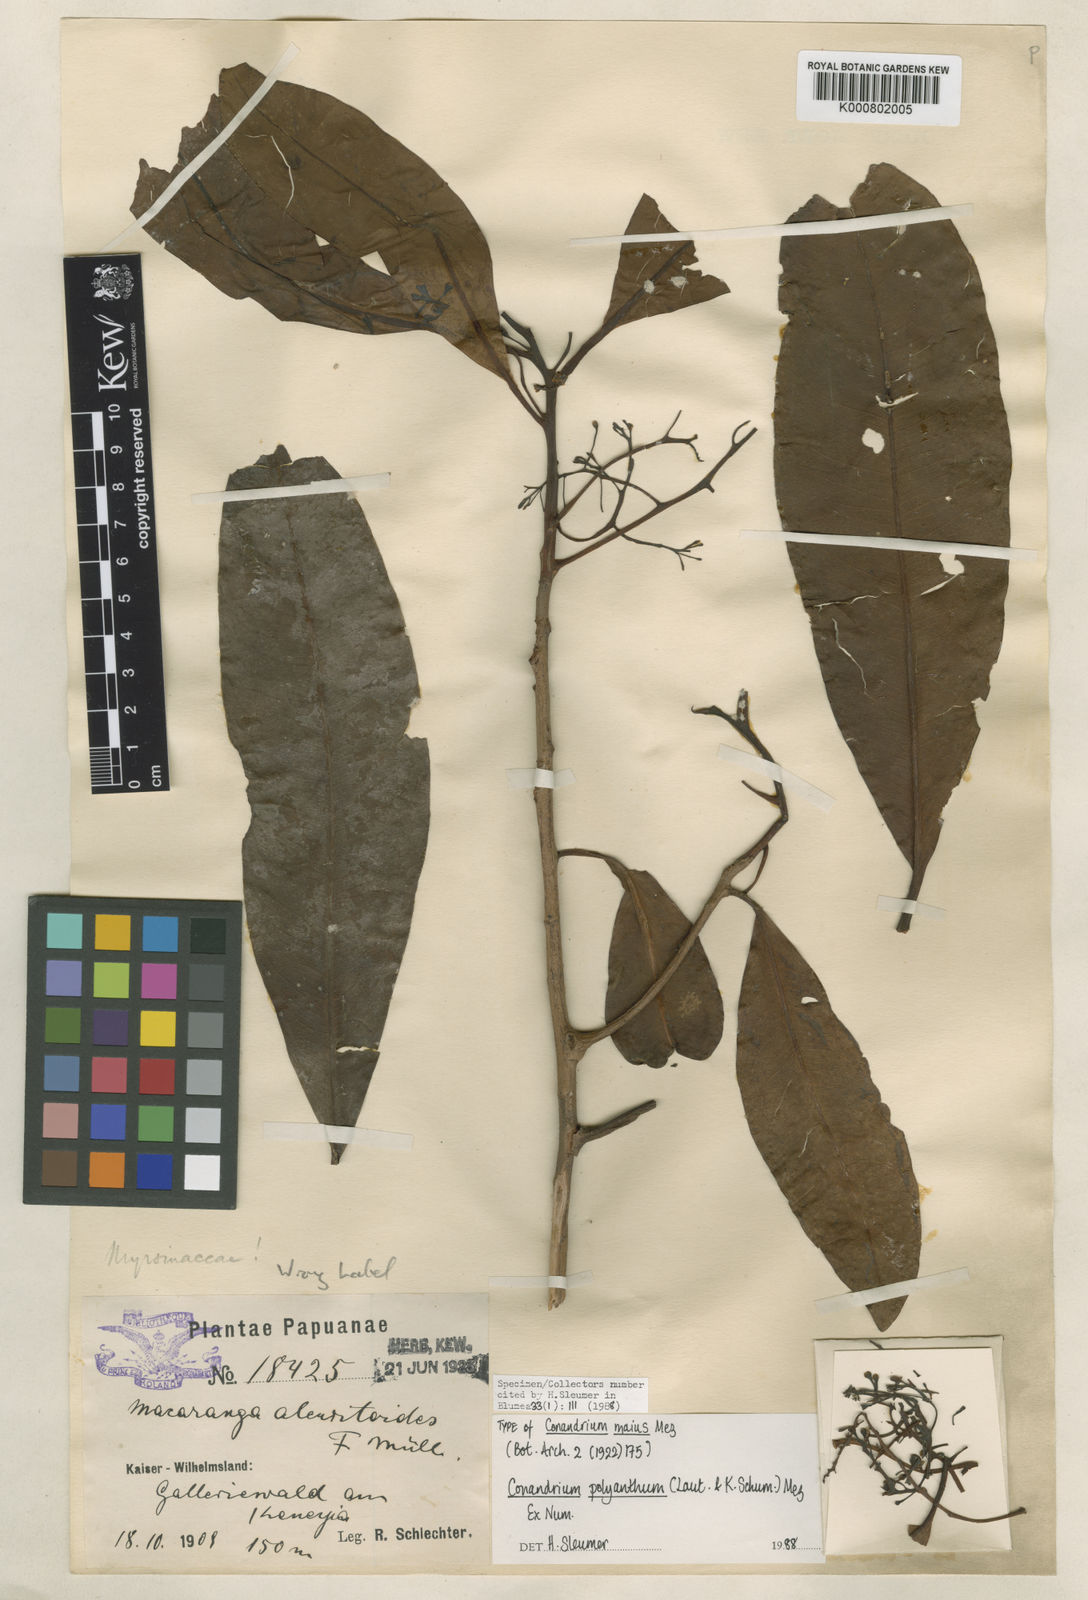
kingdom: Plantae
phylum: Tracheophyta
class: Magnoliopsida
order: Ericales
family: Primulaceae
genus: Conandrium
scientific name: Conandrium polyanthum
